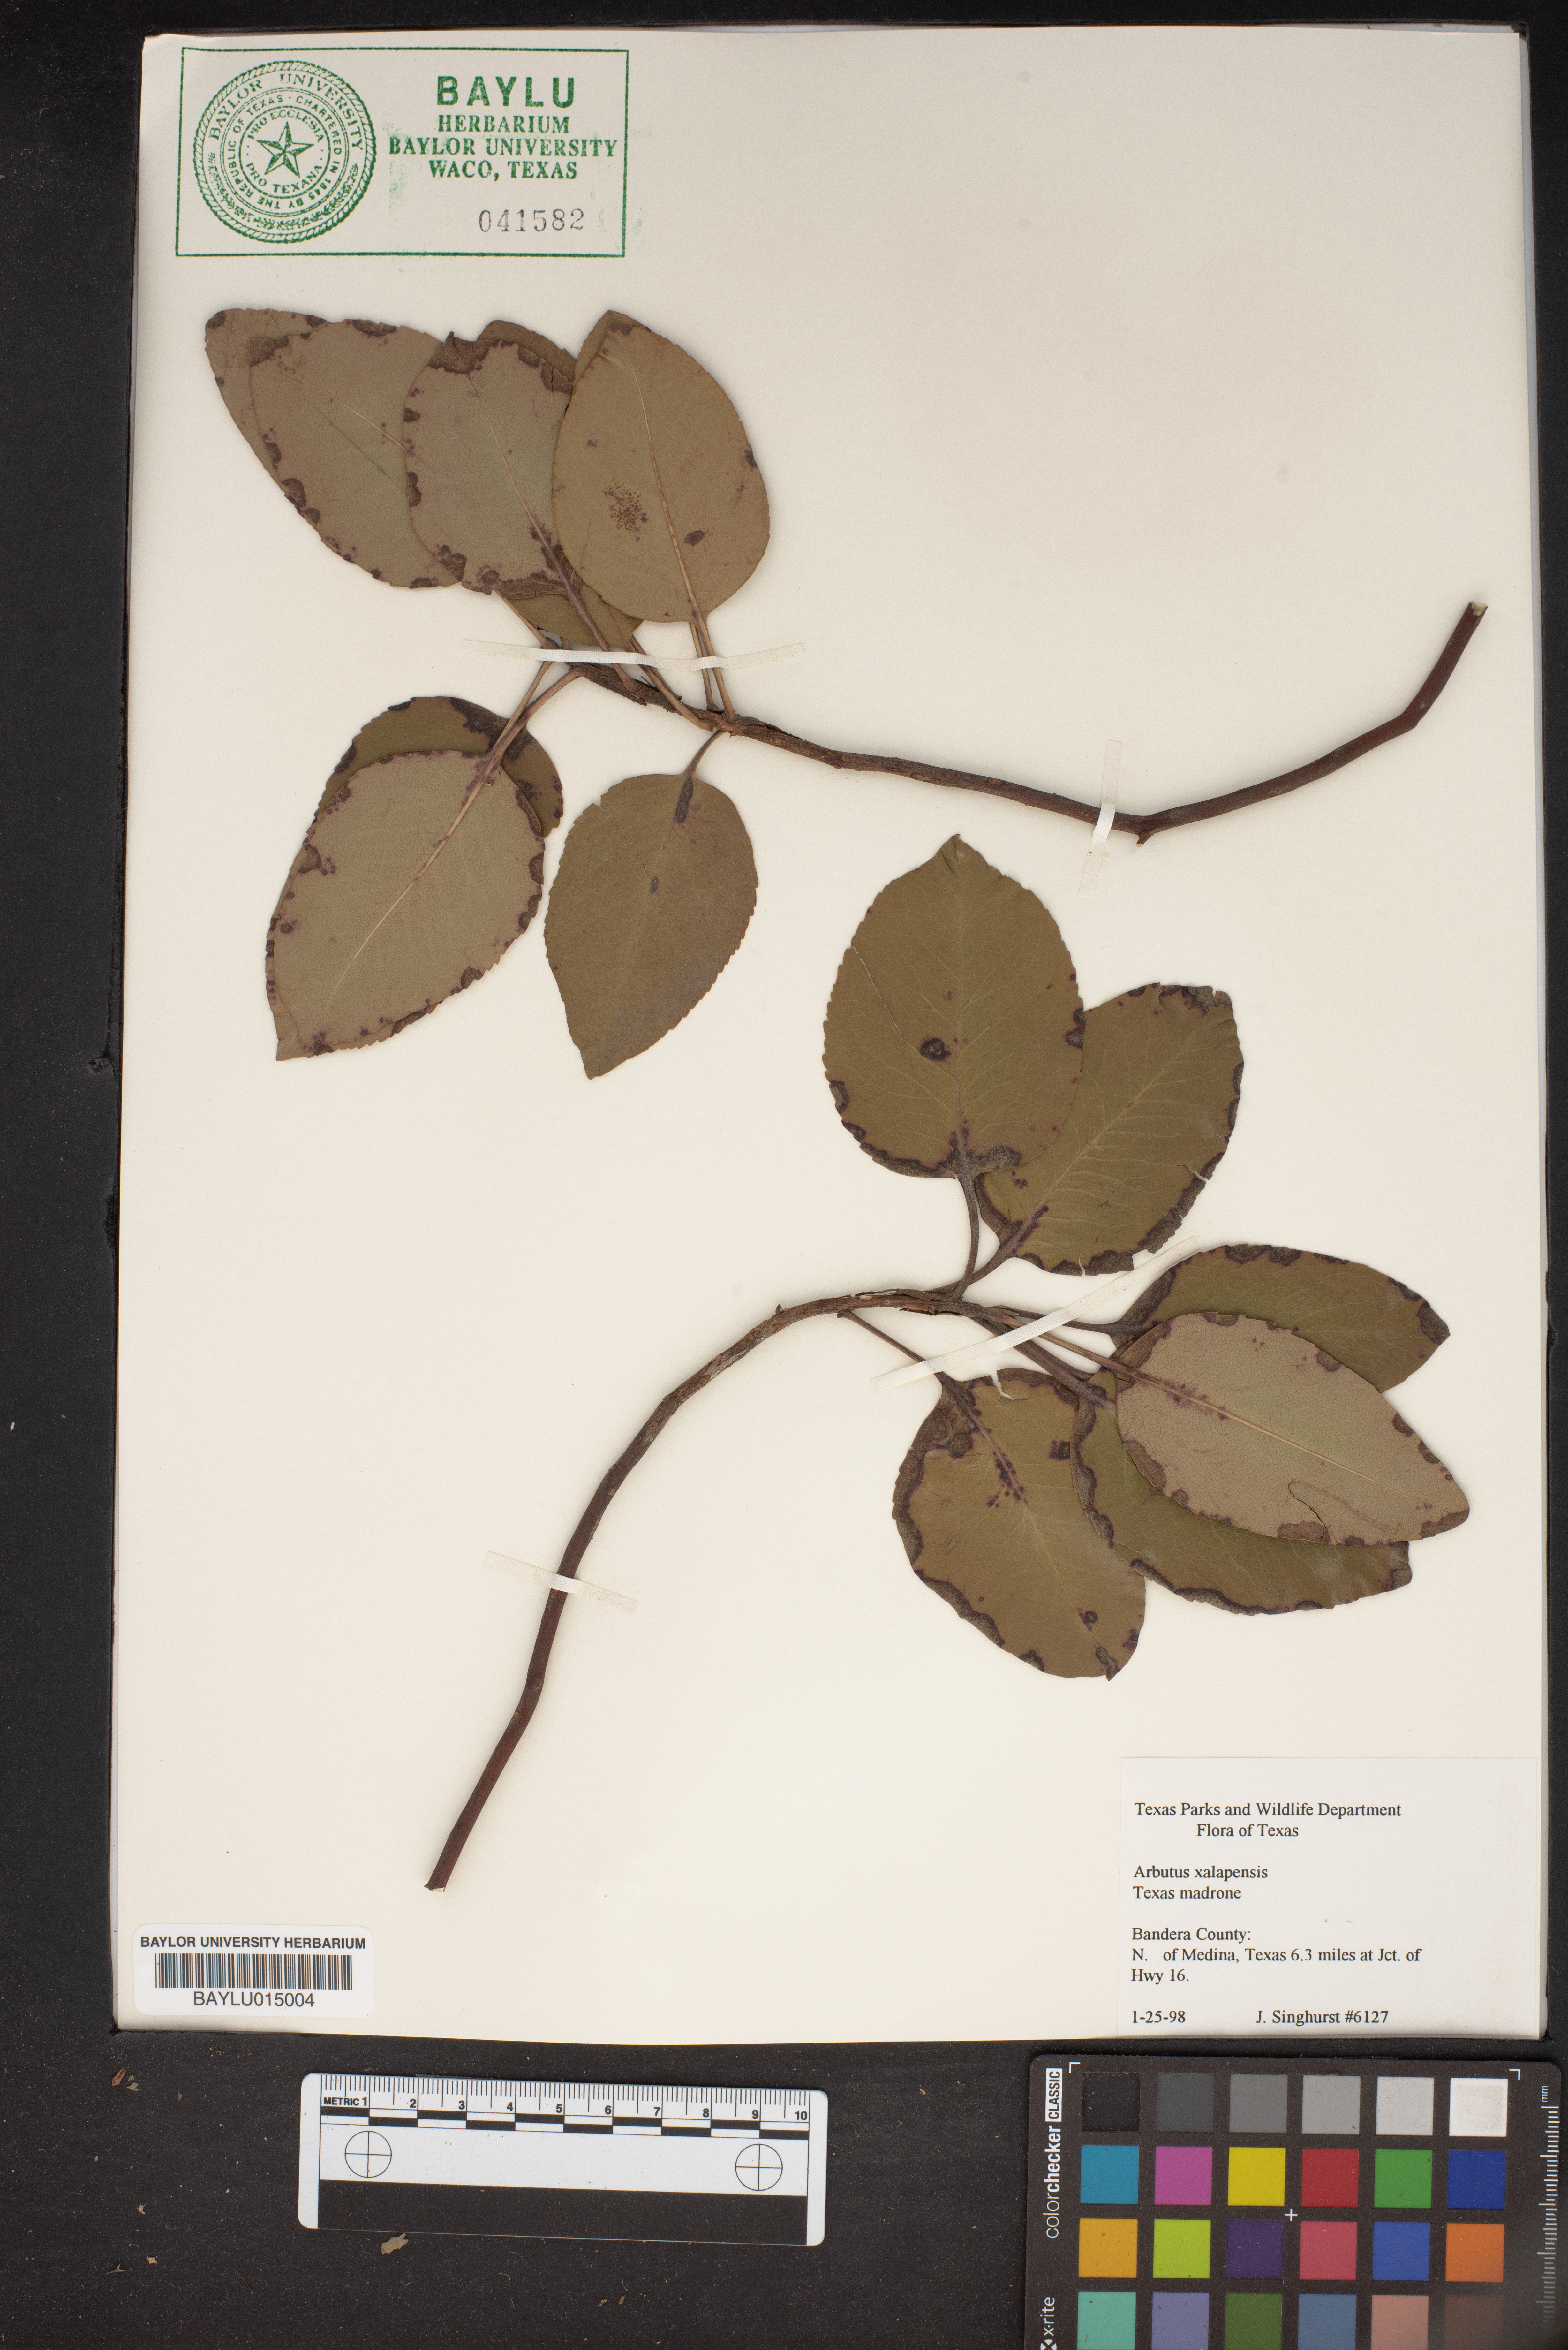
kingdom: Plantae
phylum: Tracheophyta
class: Magnoliopsida
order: Ericales
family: Ericaceae
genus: Arbutus
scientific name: Arbutus xalapensis
